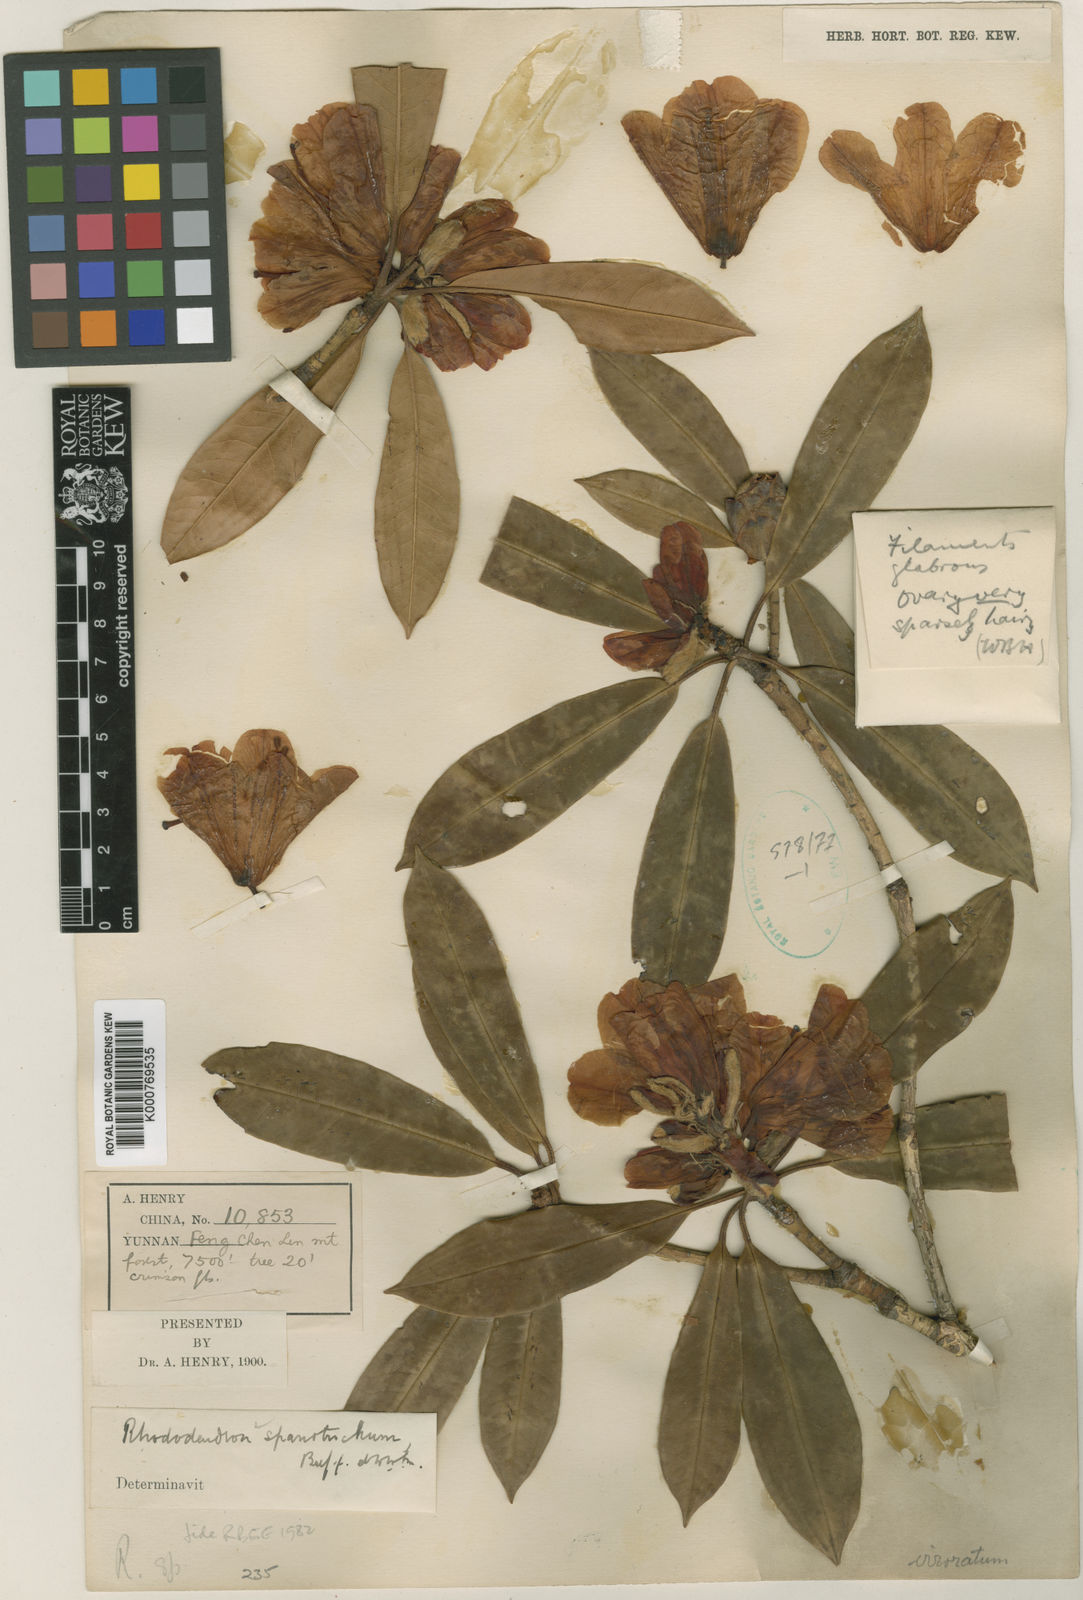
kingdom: Plantae
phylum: Tracheophyta
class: Magnoliopsida
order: Ericales
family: Ericaceae
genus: Rhododendron
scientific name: Rhododendron spanotrichum
